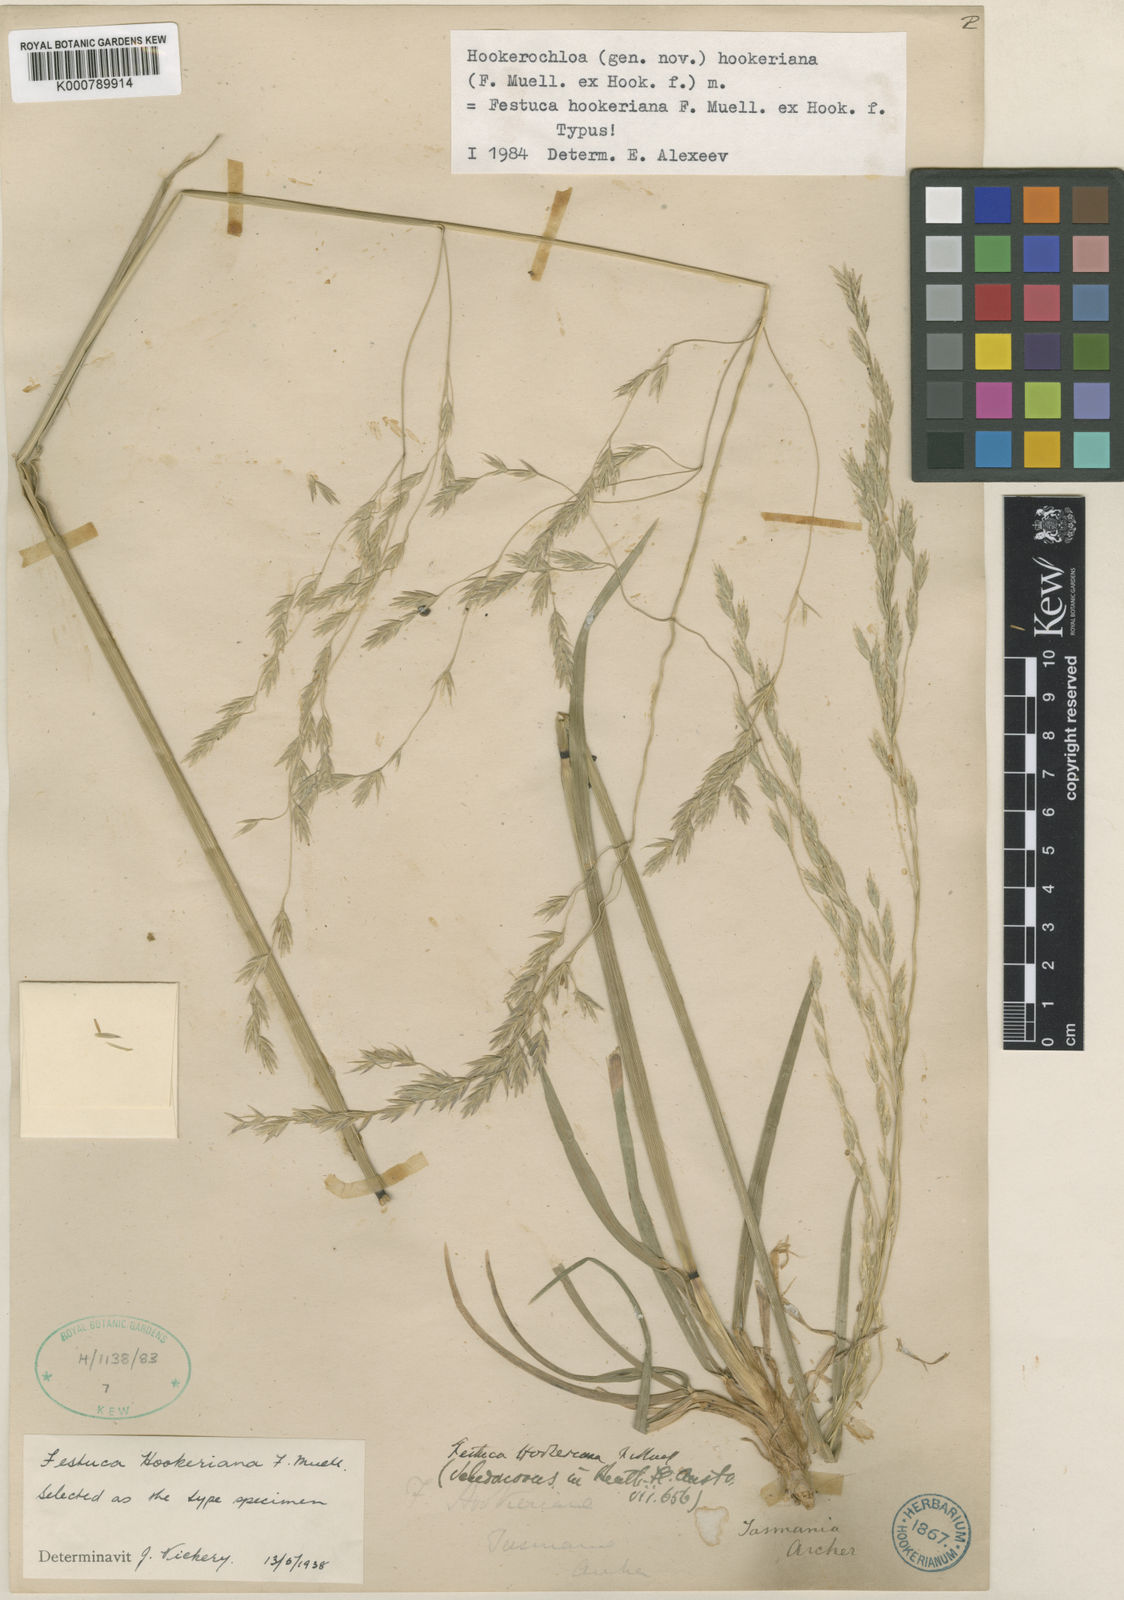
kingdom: Plantae
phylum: Tracheophyta
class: Liliopsida
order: Poales
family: Poaceae
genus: Hookerochloa
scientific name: Hookerochloa hookeriana
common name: Hooker's-fescue
